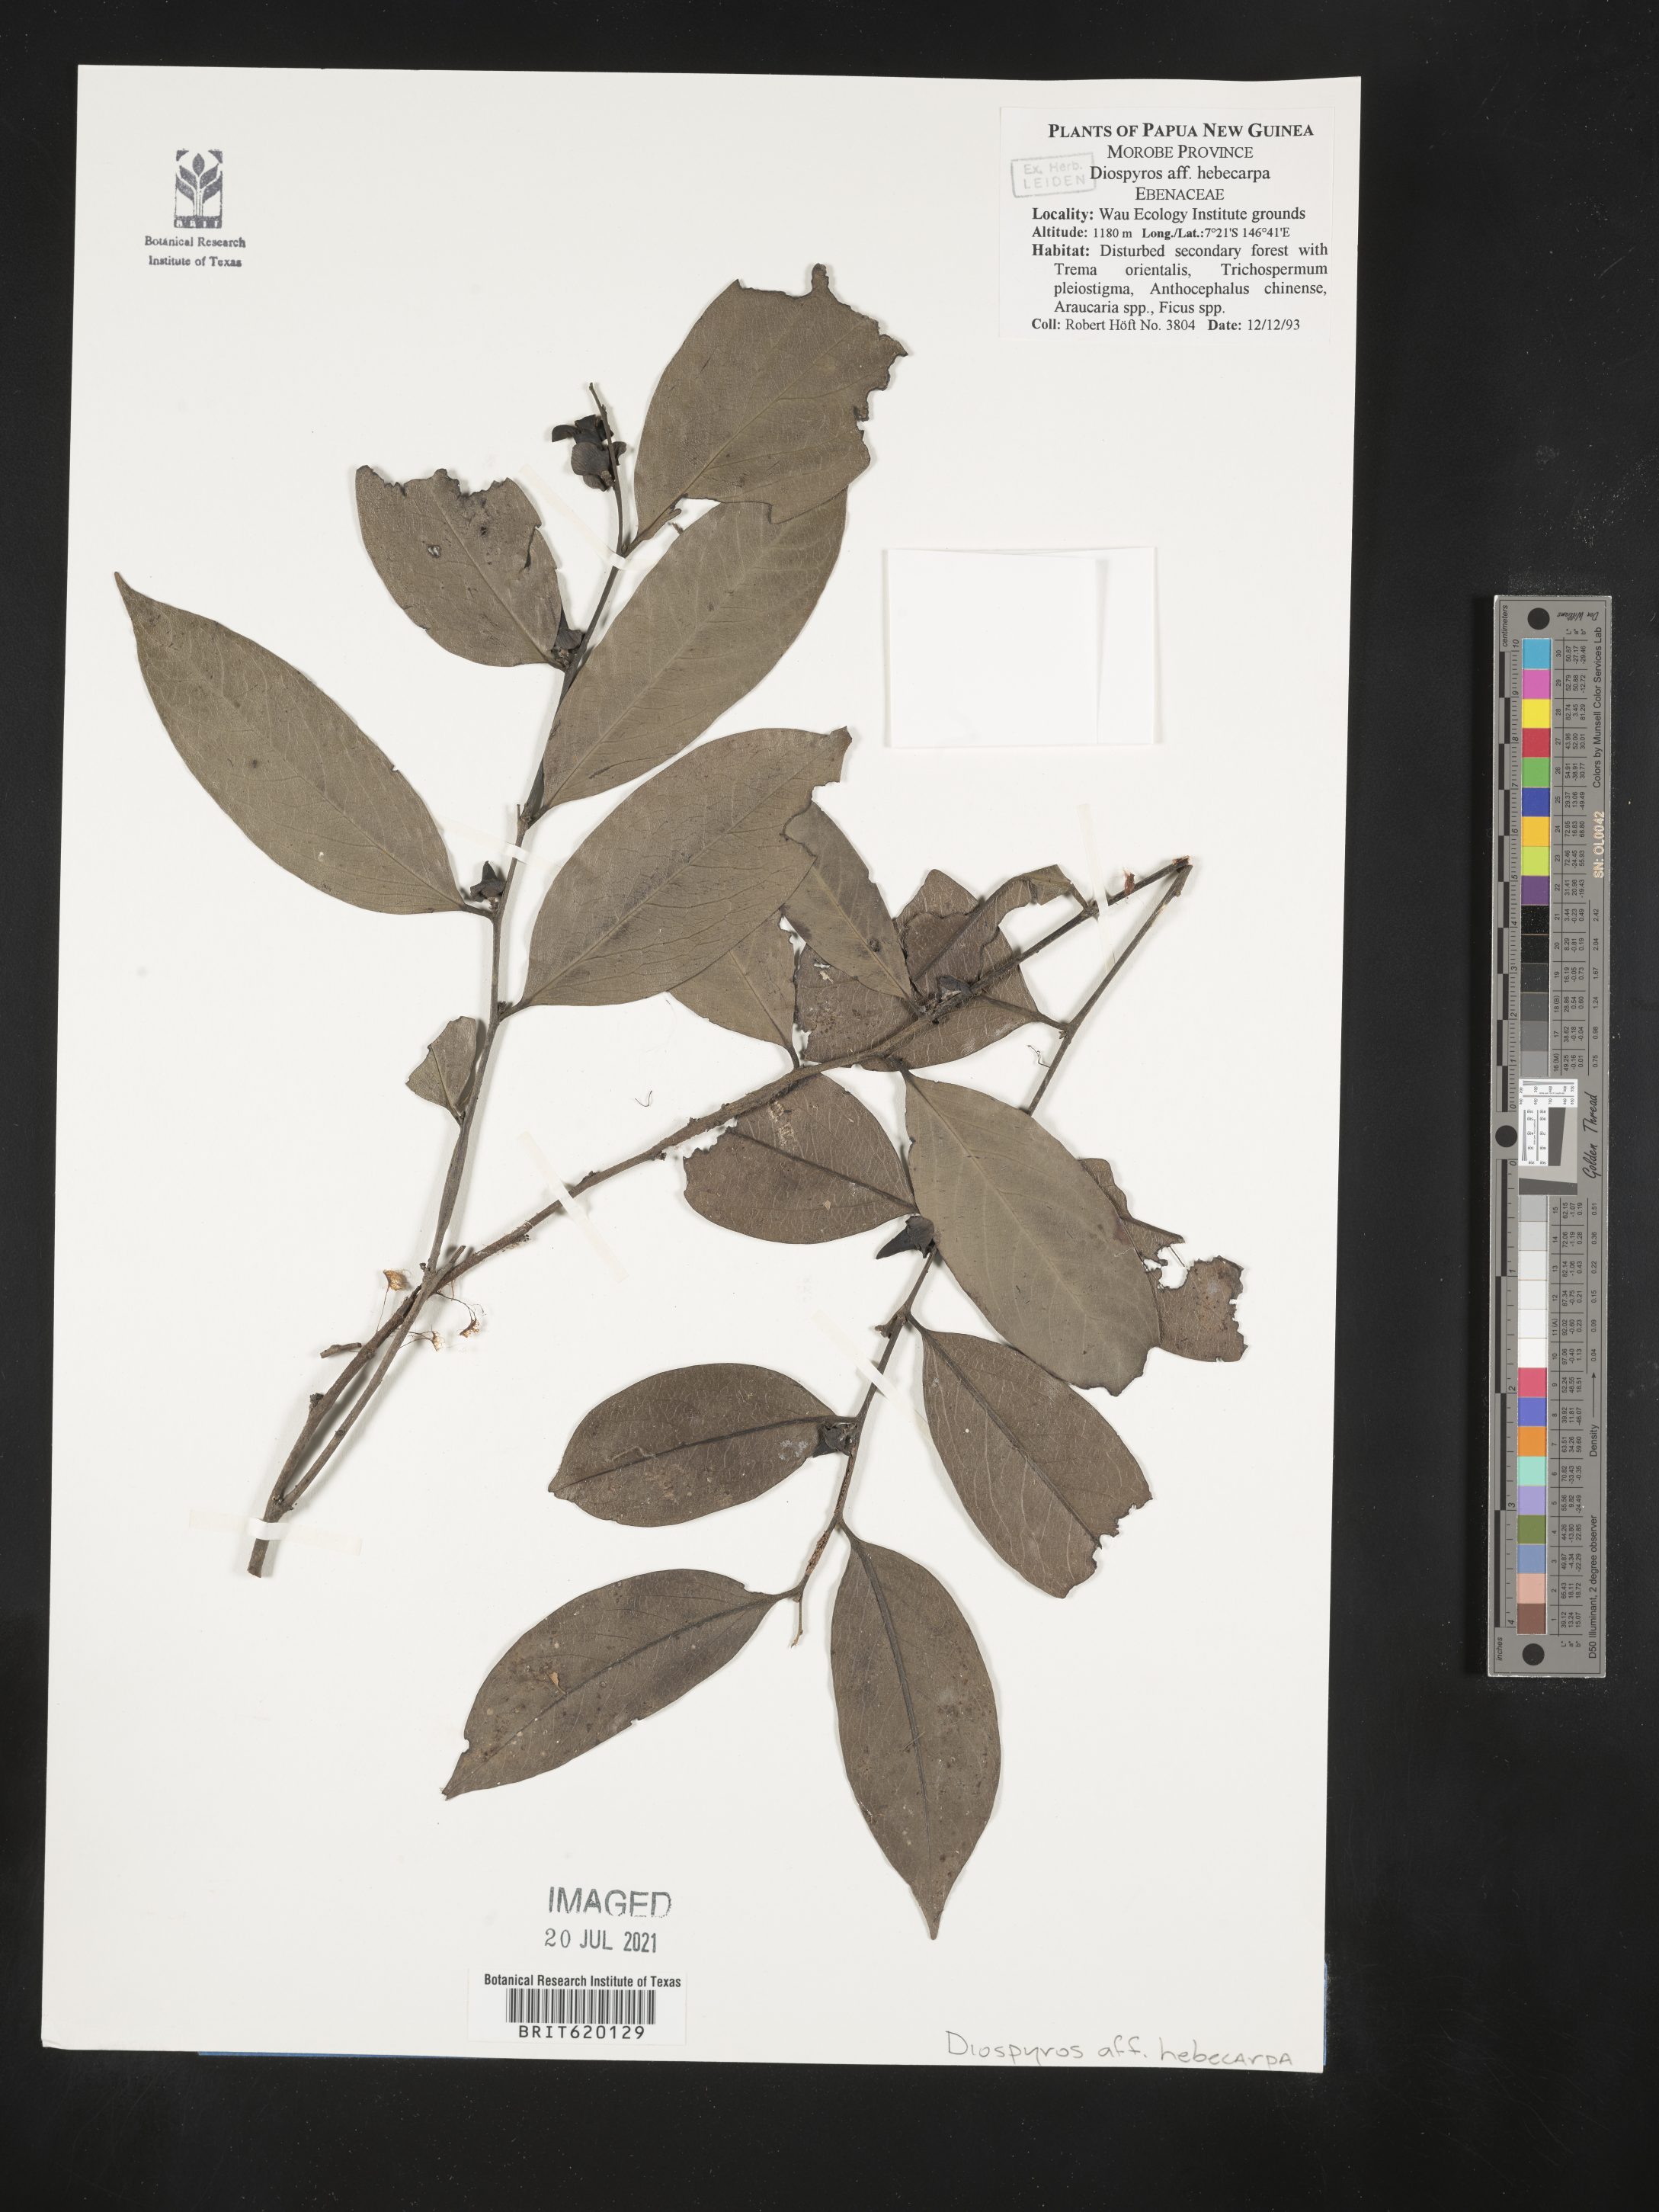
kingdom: Plantae
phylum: Tracheophyta
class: Magnoliopsida
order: Ericales
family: Ebenaceae
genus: Diospyros
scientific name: Diospyros hebecarpa
